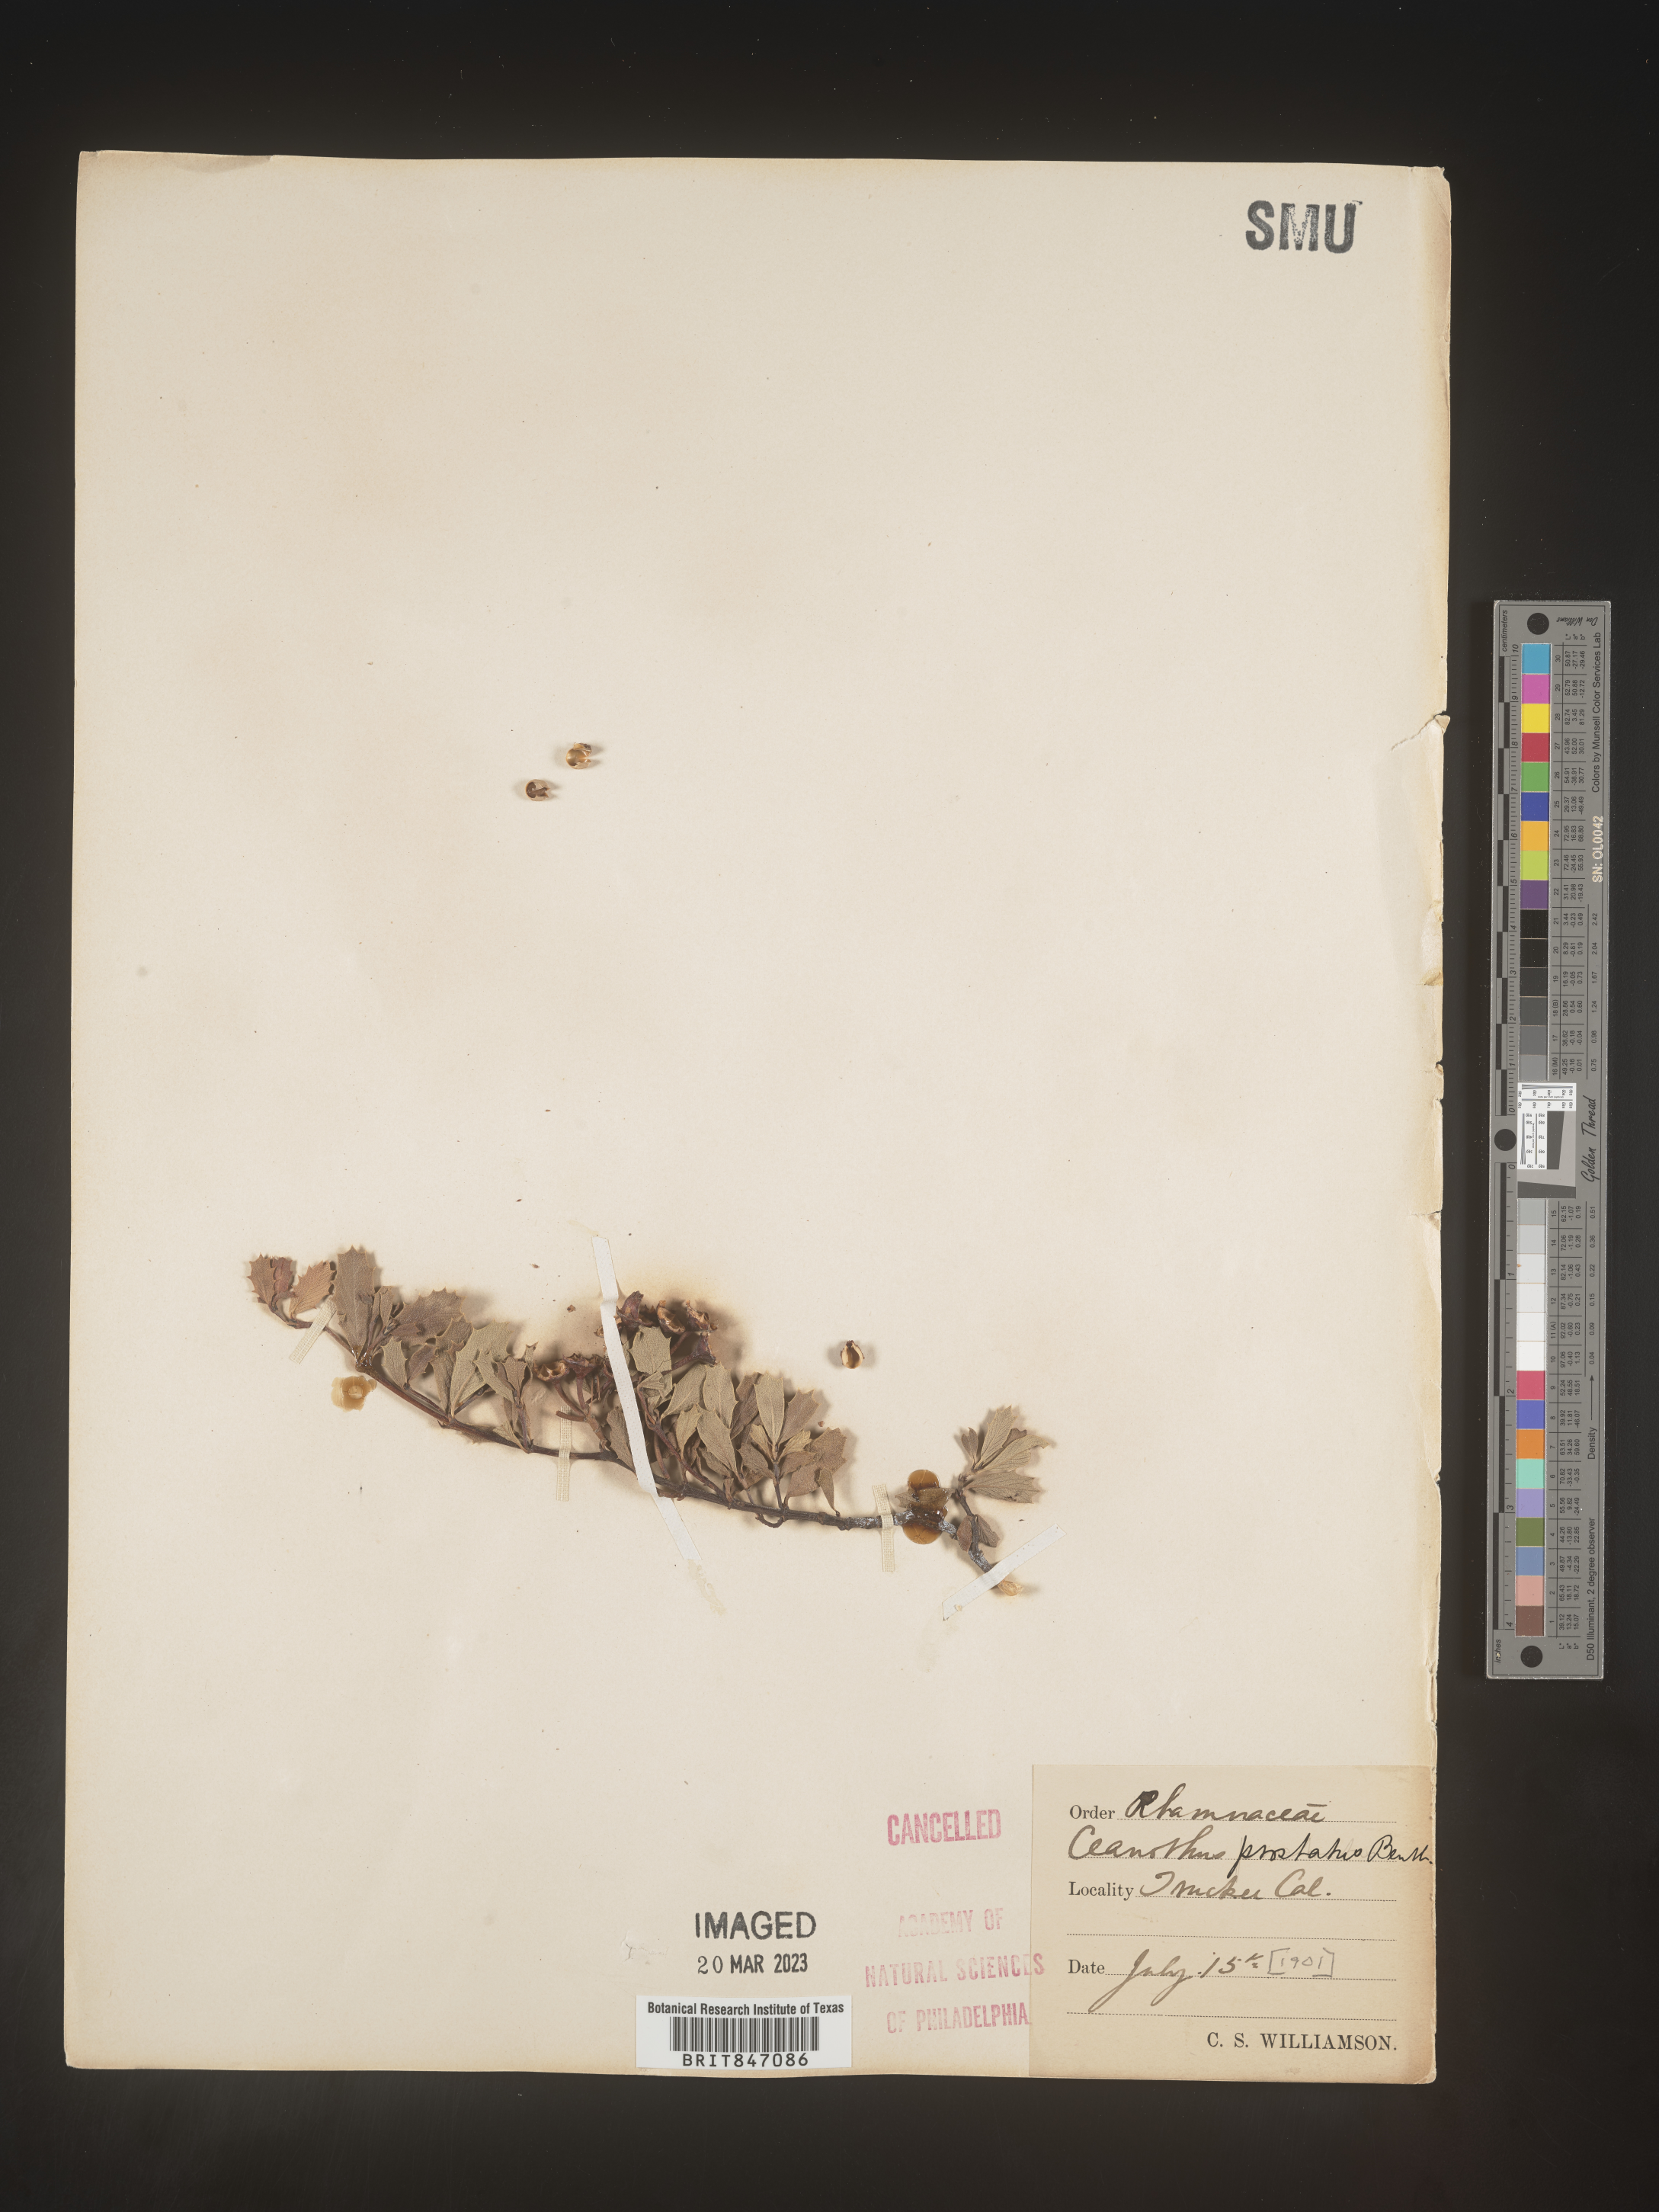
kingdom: Plantae
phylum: Tracheophyta
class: Magnoliopsida
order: Rosales
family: Rhamnaceae
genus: Ceanothus
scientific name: Ceanothus
